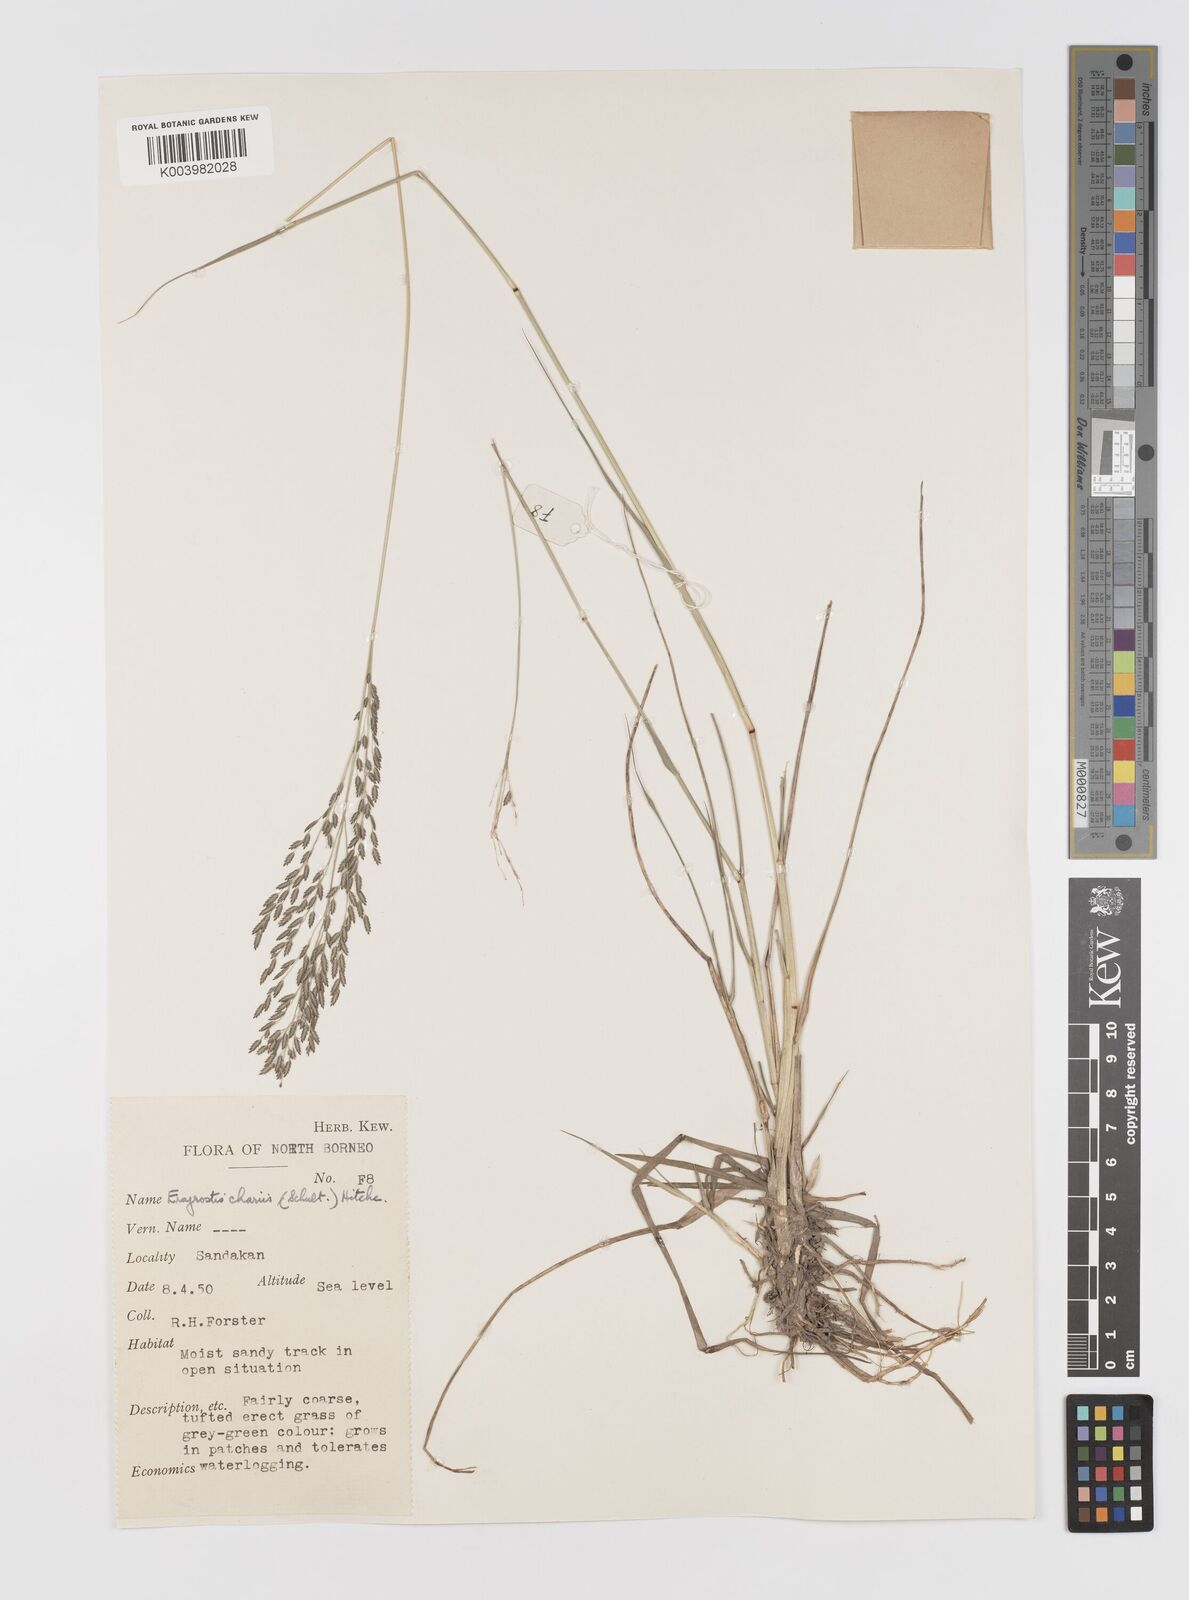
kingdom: Plantae
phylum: Tracheophyta
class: Liliopsida
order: Poales
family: Poaceae
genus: Eragrostis
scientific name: Eragrostis atrovirens
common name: Thalia lovegrass
